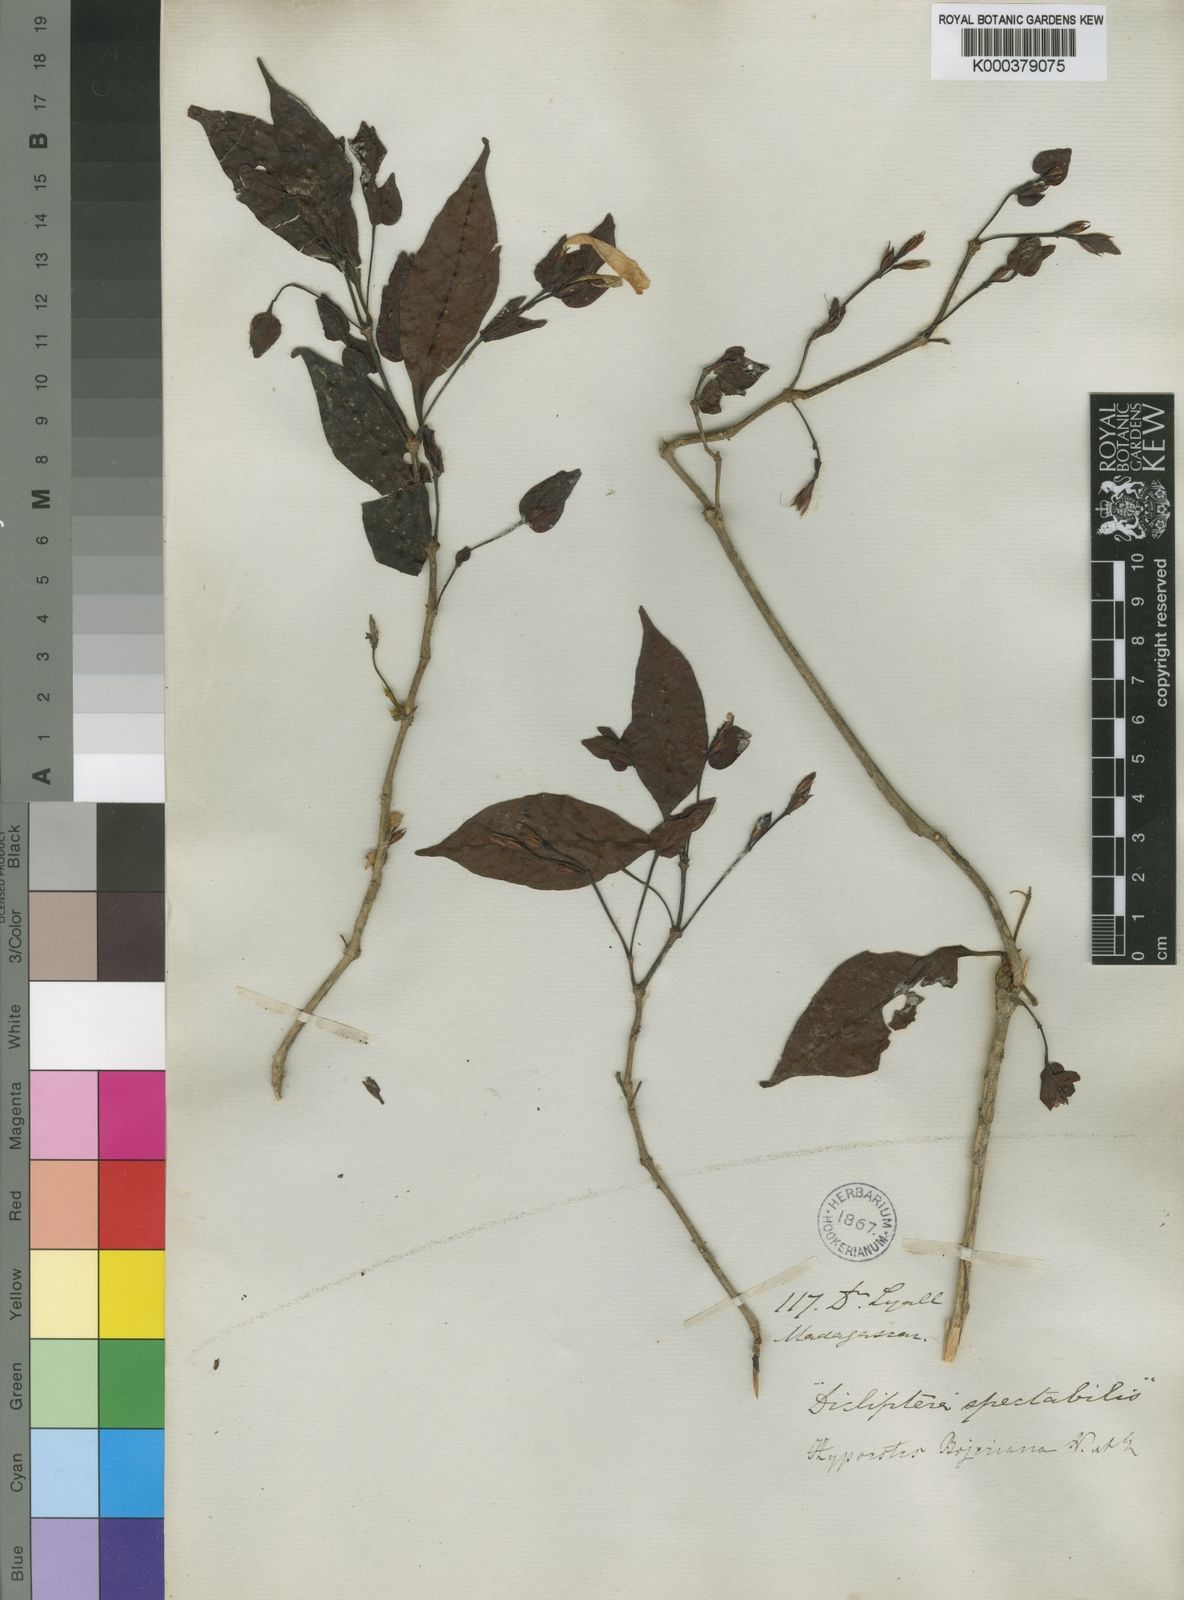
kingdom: Plantae
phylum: Tracheophyta
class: Magnoliopsida
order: Lamiales
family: Acanthaceae
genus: Hypoestes
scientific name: Hypoestes bojeriana
